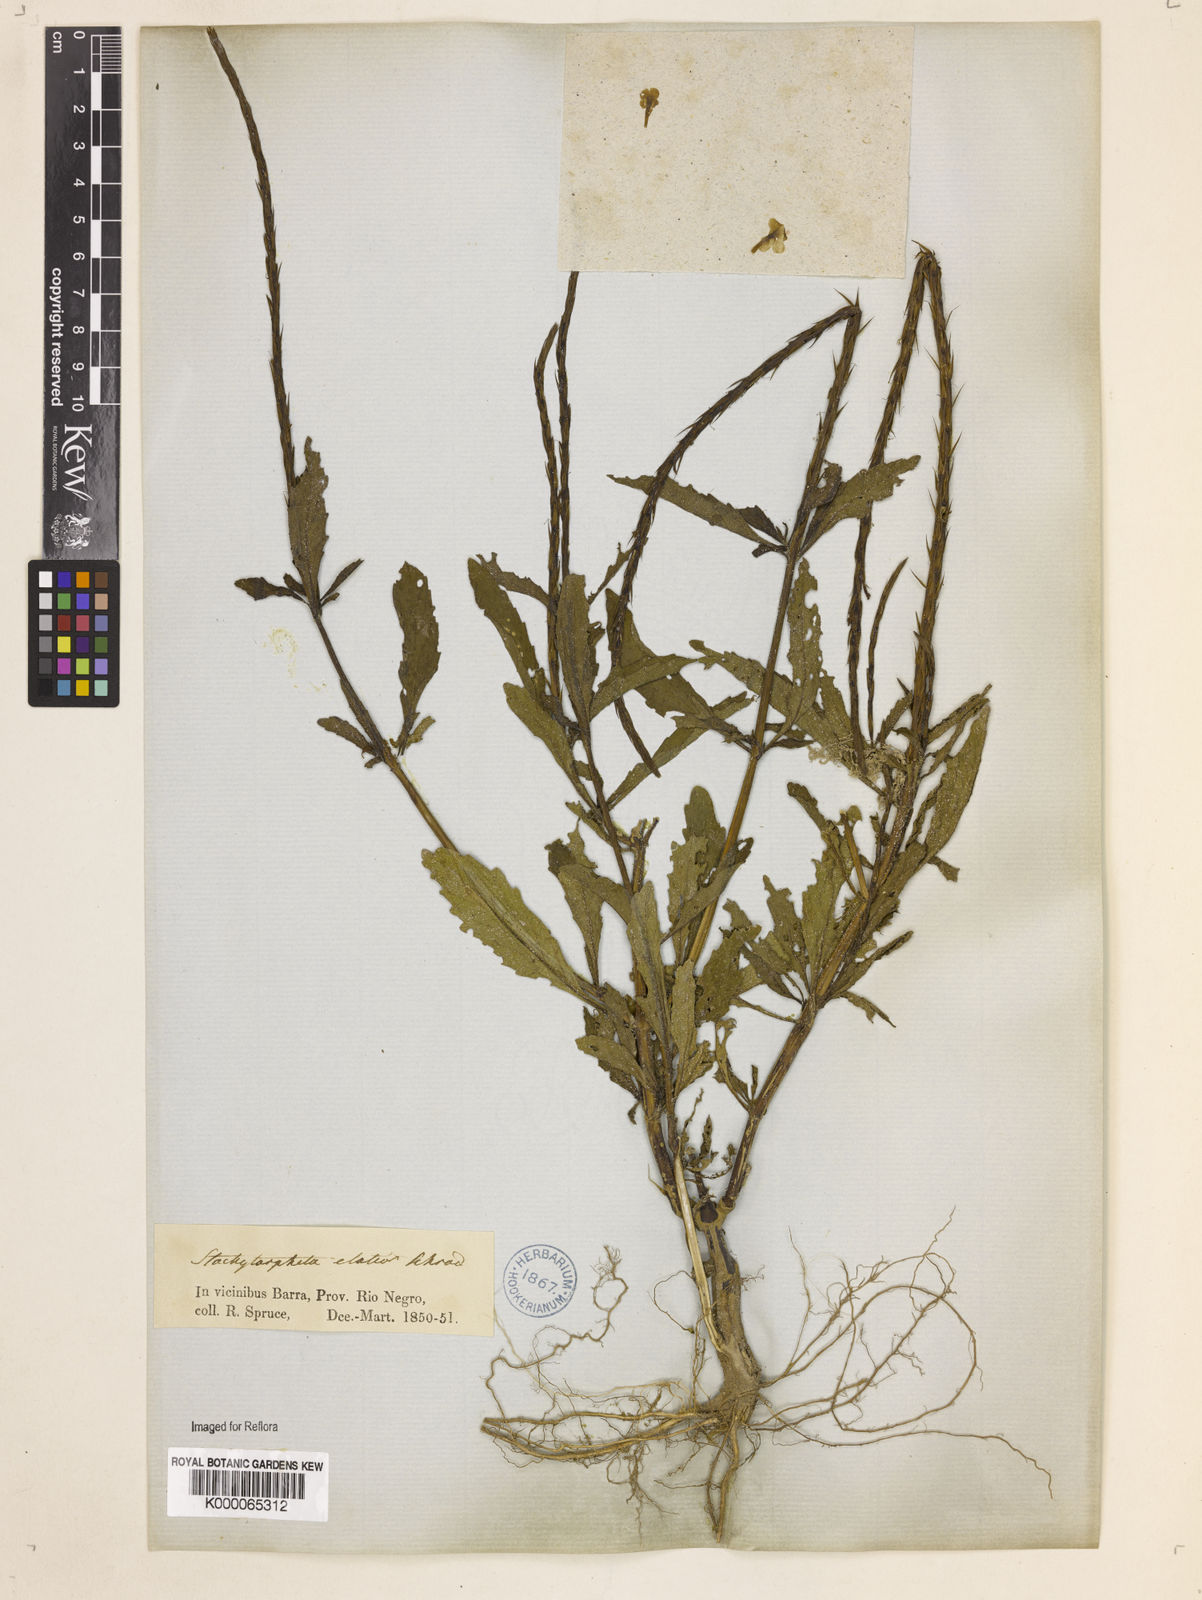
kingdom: Plantae
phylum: Tracheophyta
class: Magnoliopsida
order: Lamiales
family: Verbenaceae
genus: Stachytarpheta
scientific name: Stachytarpheta indica
